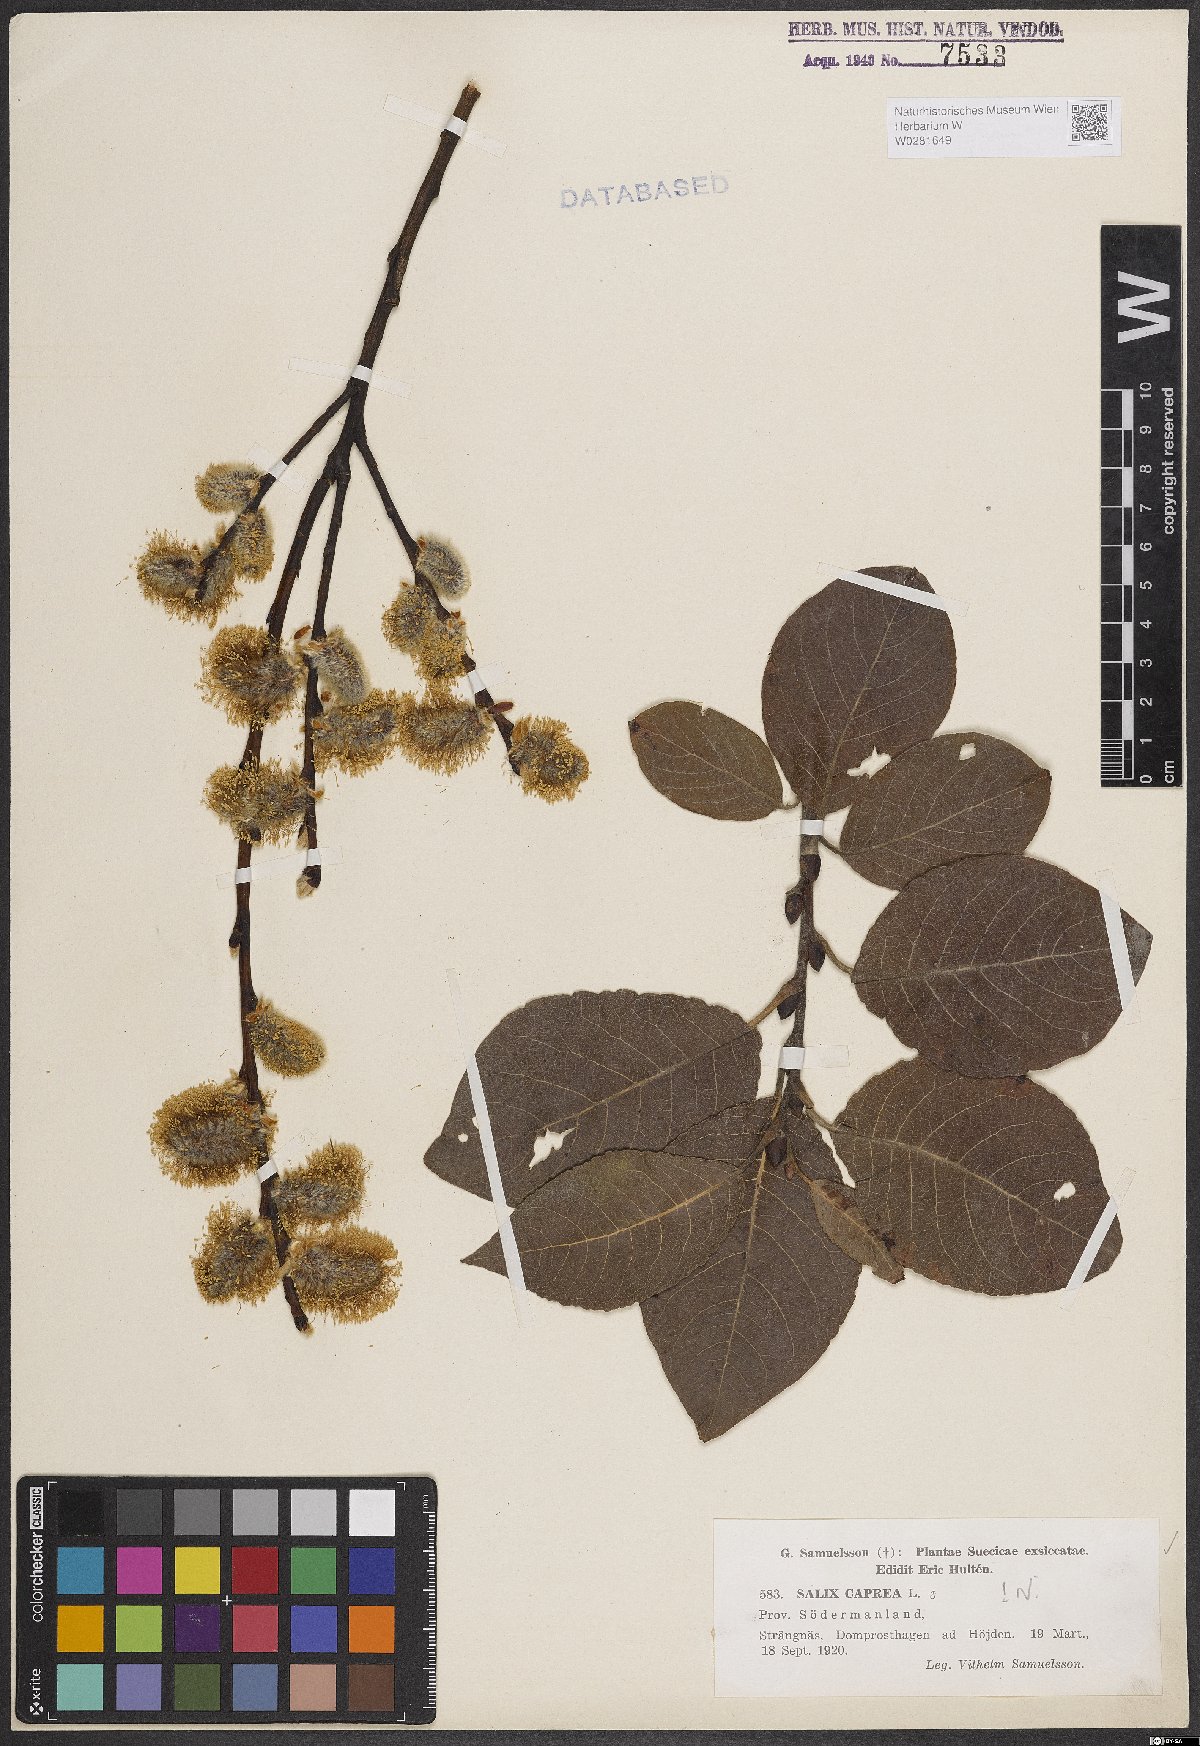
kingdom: Plantae
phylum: Tracheophyta
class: Magnoliopsida
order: Malpighiales
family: Salicaceae
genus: Salix
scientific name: Salix caprea
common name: Goat willow
